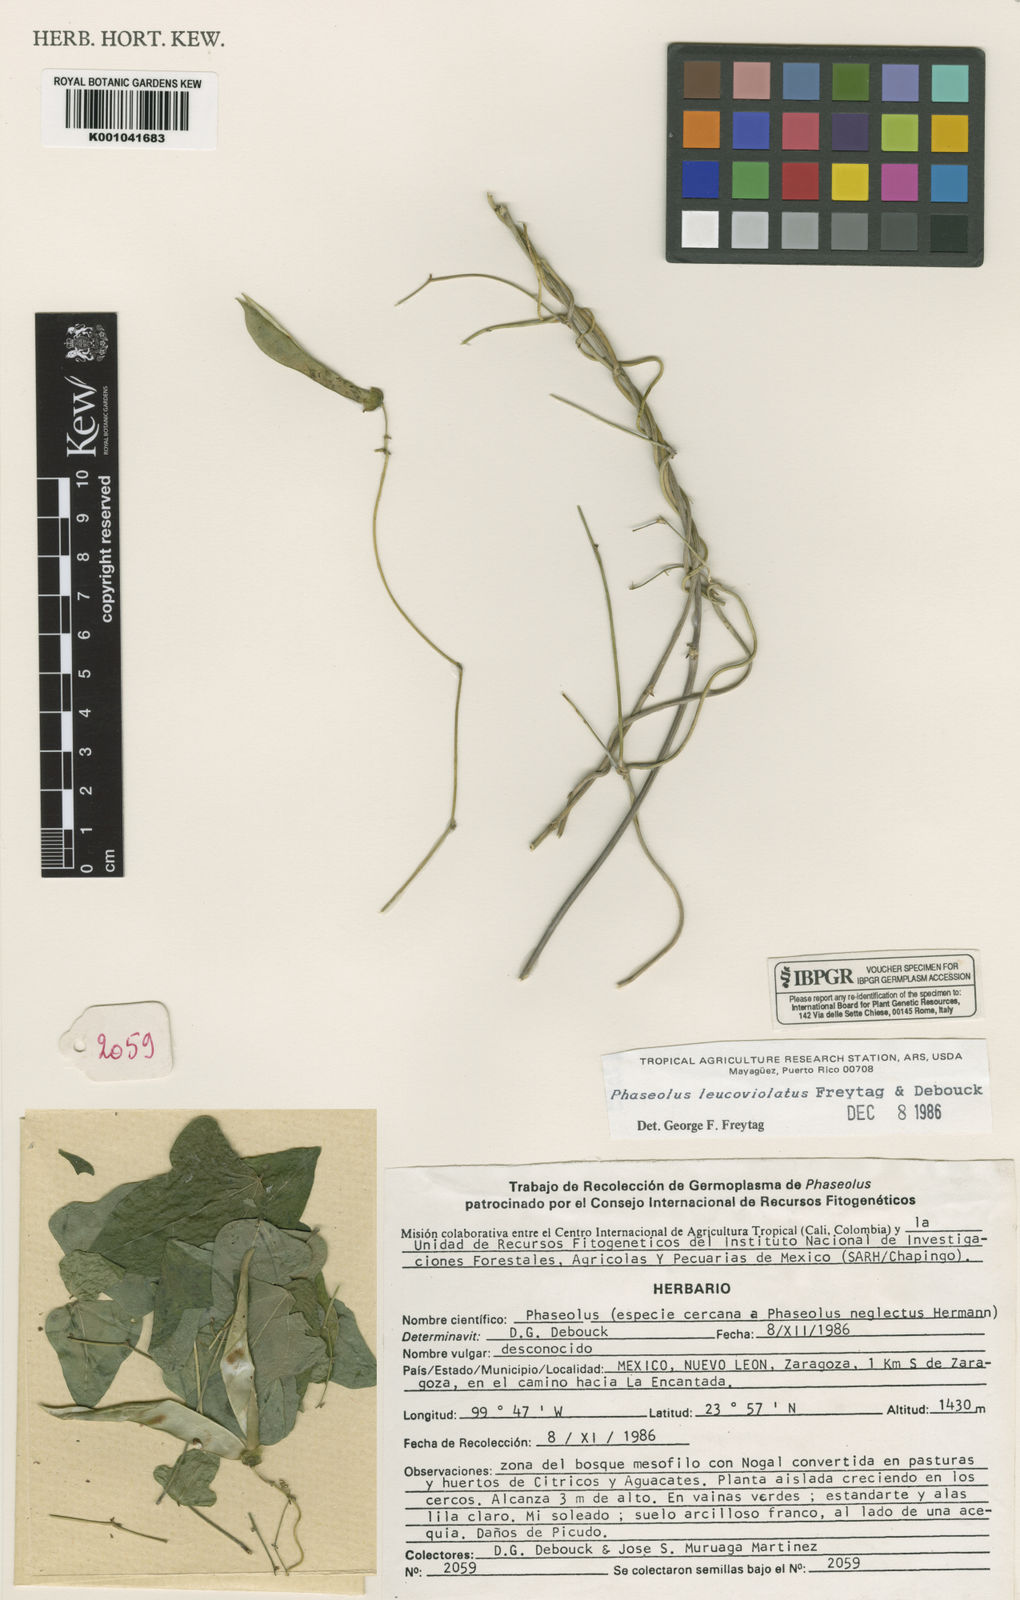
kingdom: Plantae
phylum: Tracheophyta
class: Magnoliopsida
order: Fabales
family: Fabaceae
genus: Phaseolus
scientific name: Phaseolus albiviolaceus
